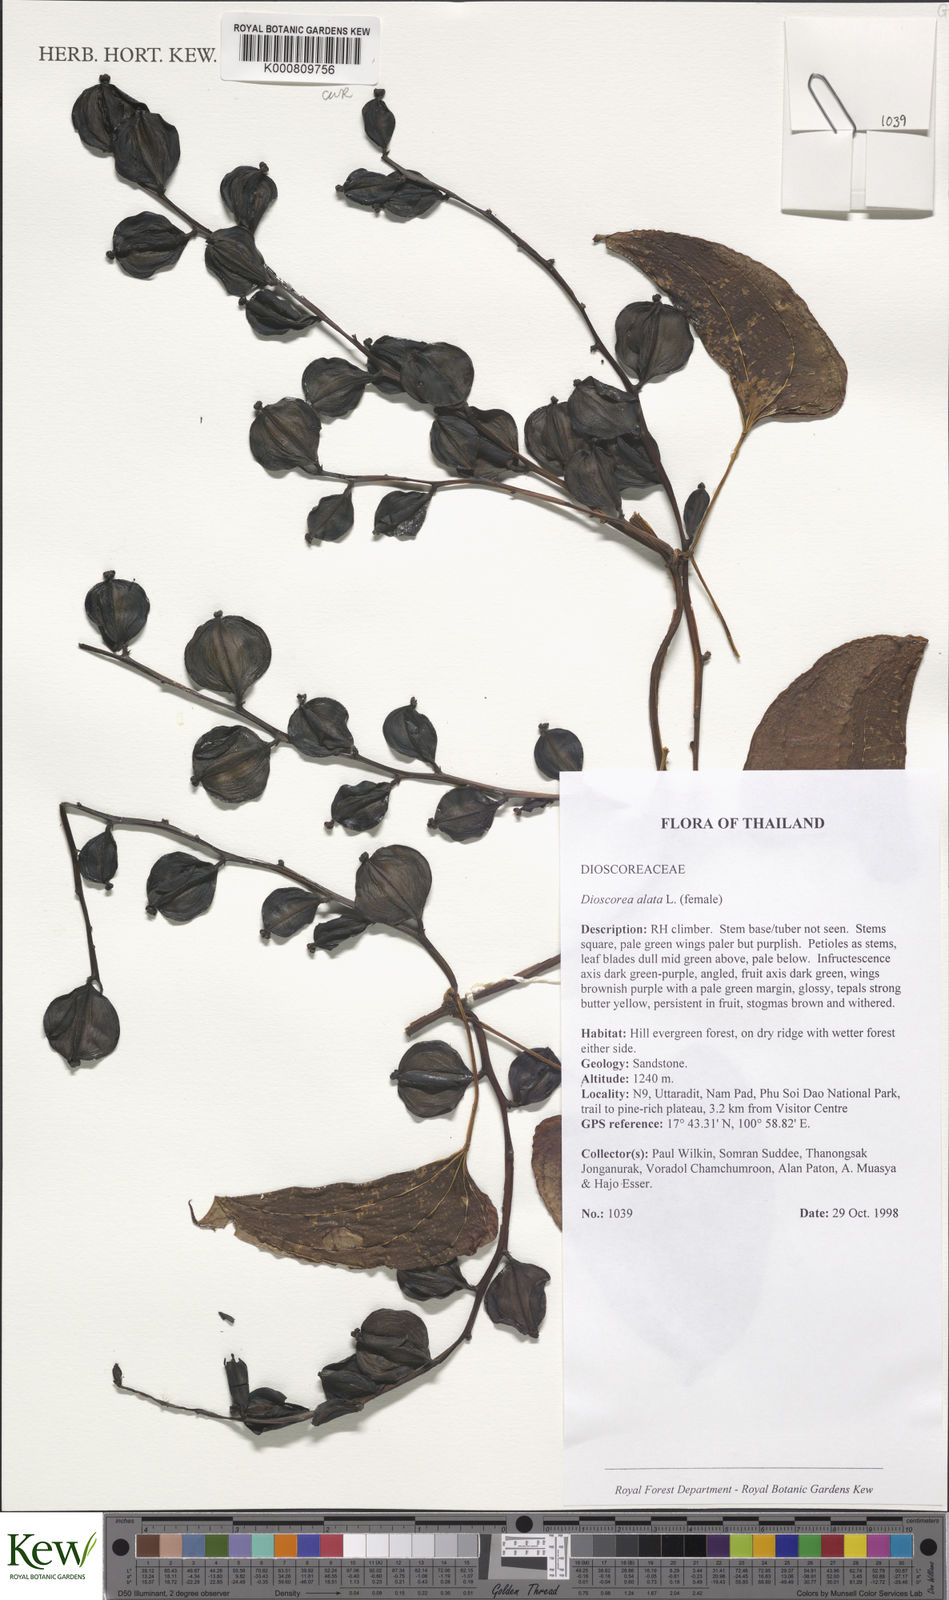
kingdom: Plantae
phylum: Tracheophyta
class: Liliopsida
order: Dioscoreales
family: Dioscoreaceae
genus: Dioscorea
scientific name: Dioscorea alata
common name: Water yam
